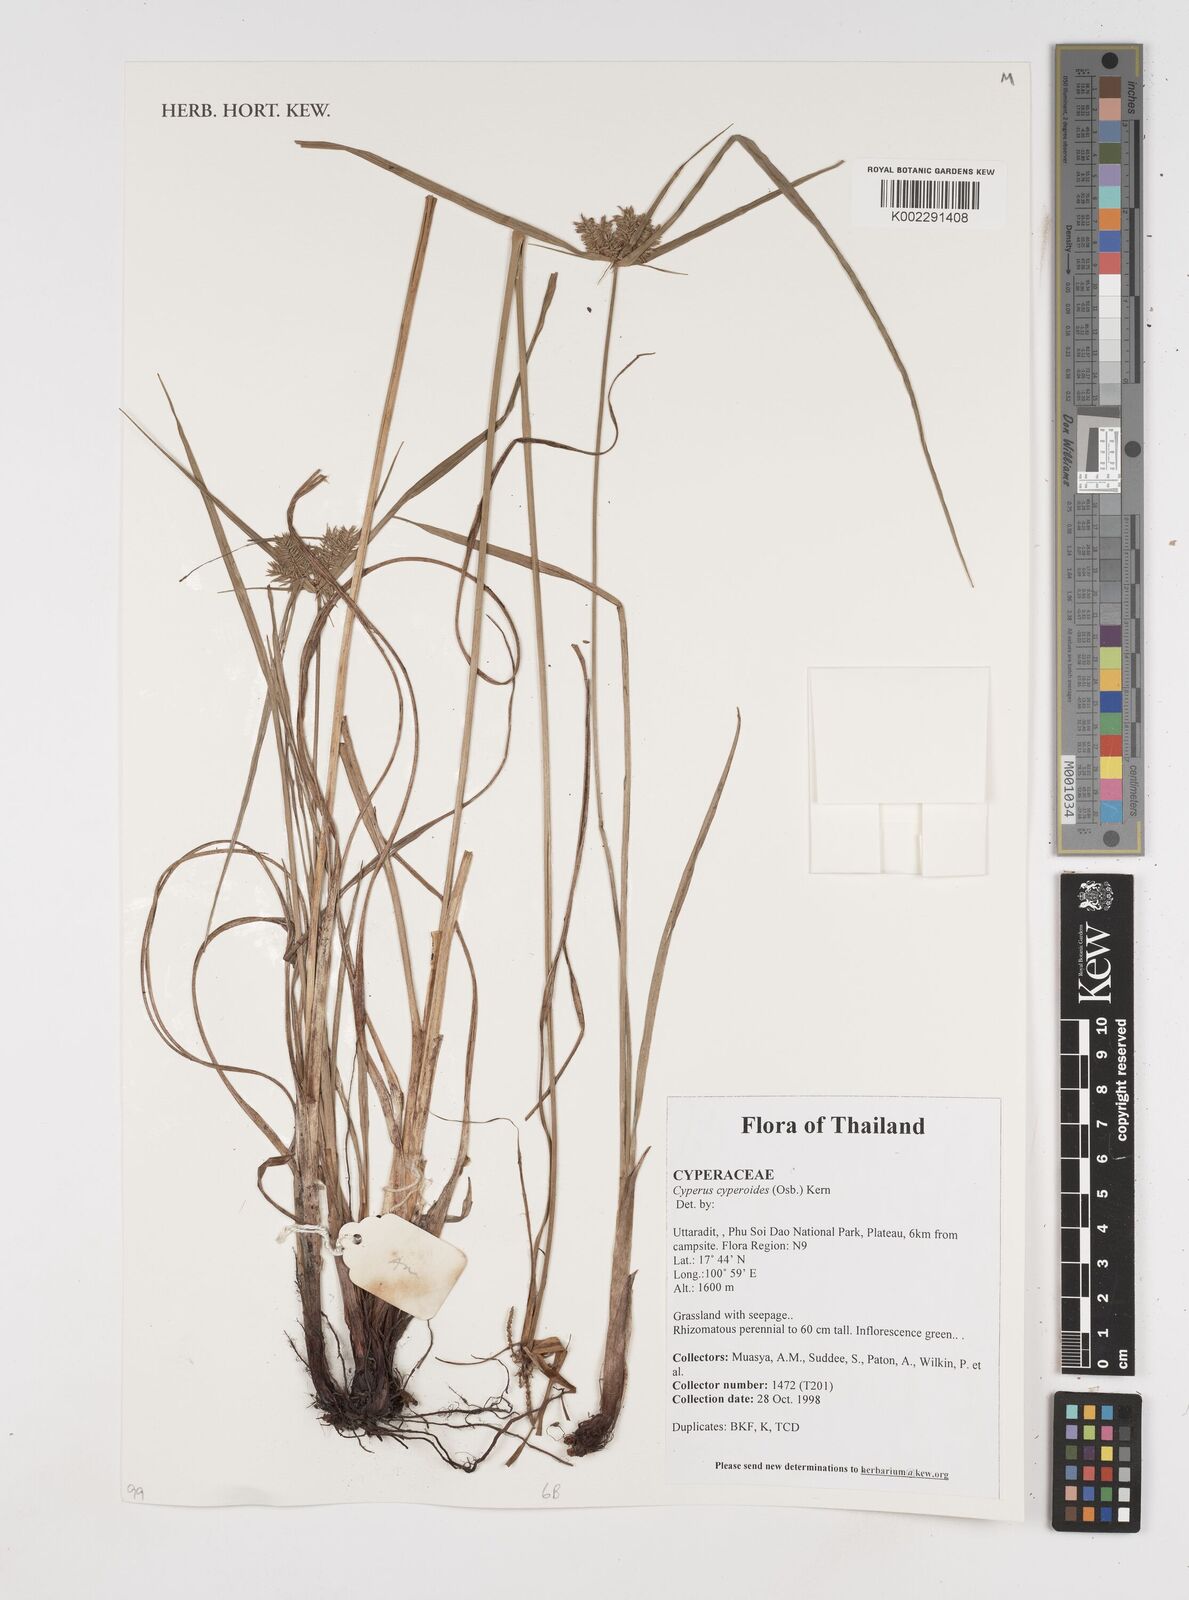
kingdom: Plantae
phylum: Tracheophyta
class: Liliopsida
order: Poales
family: Cyperaceae
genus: Cyperus
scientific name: Cyperus cyperoides
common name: Pacific island flat sedge
